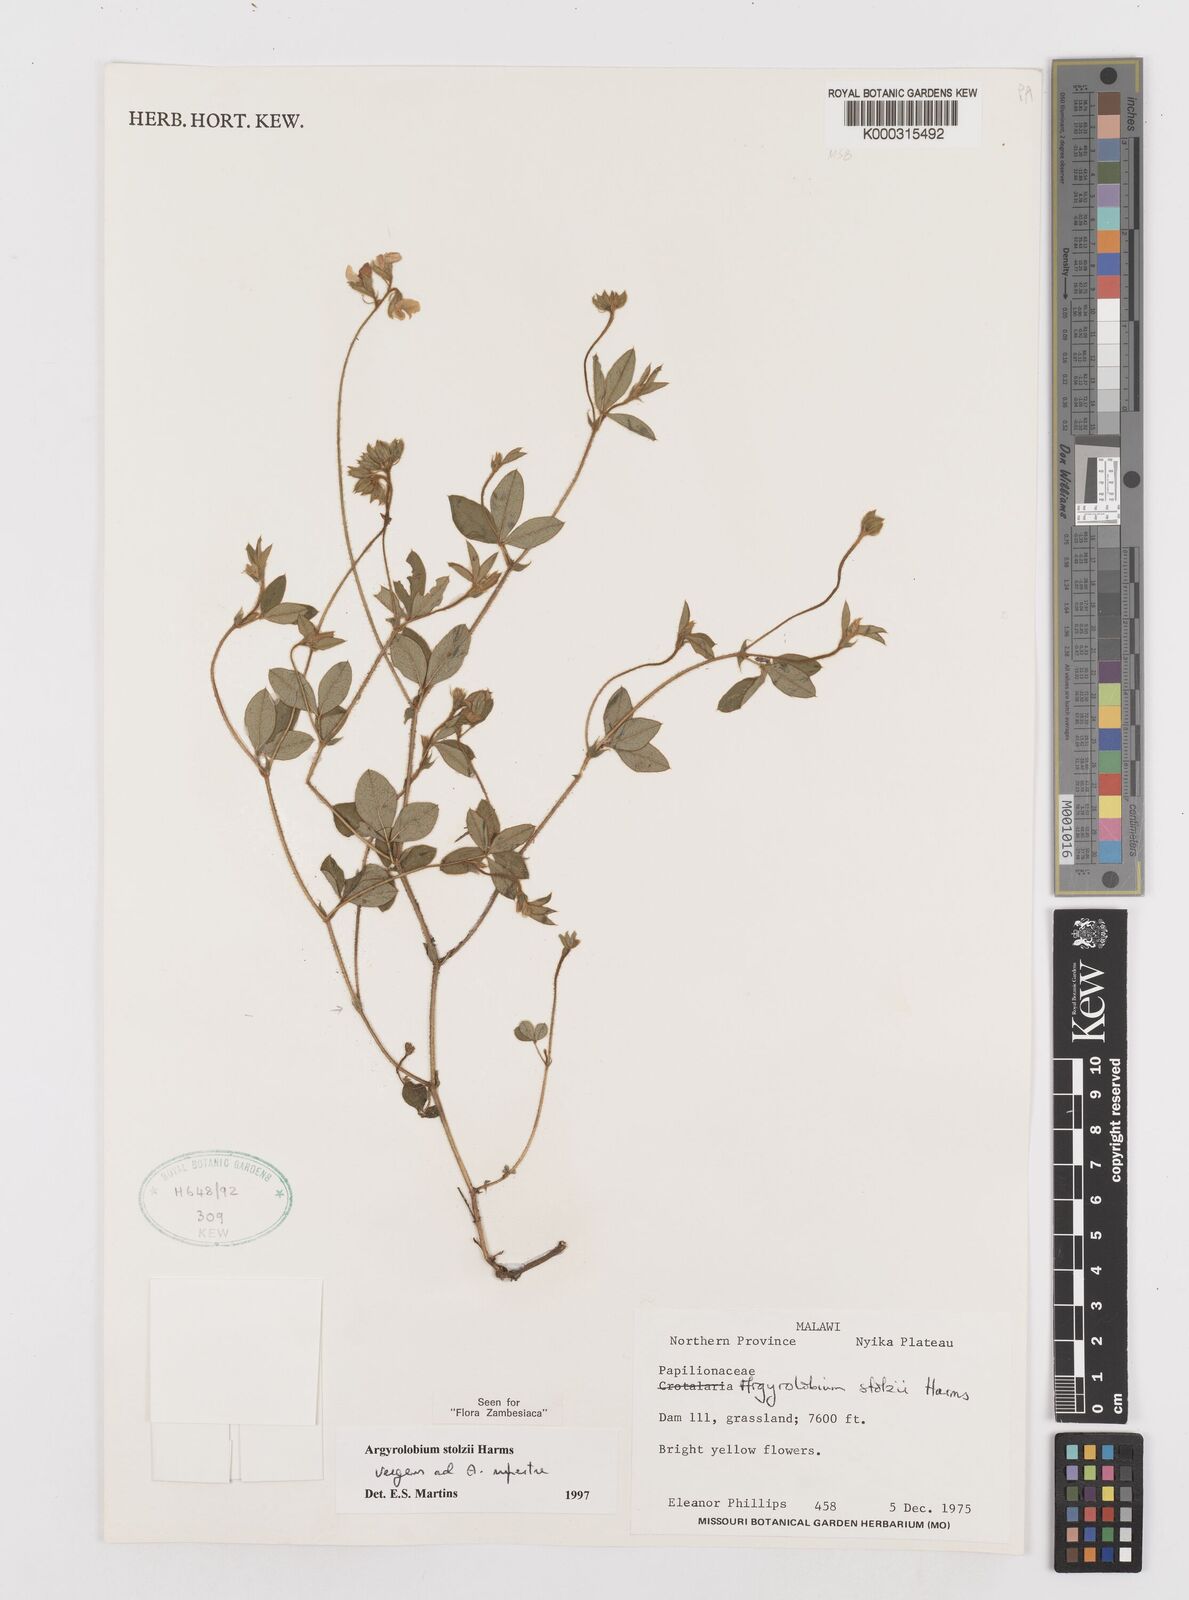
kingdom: Plantae
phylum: Tracheophyta
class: Magnoliopsida
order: Fabales
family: Fabaceae
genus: Argyrolobium
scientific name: Argyrolobium stolzii
